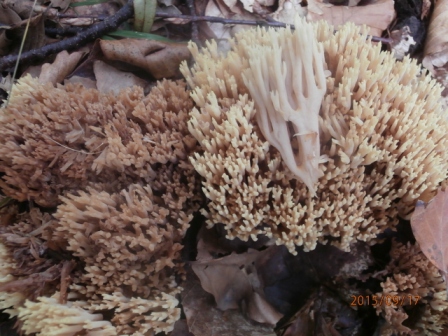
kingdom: Fungi
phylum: Basidiomycota
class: Agaricomycetes
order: Gomphales
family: Gomphaceae
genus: Ramaria
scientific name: Ramaria stricta
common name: rank koralsvamp
